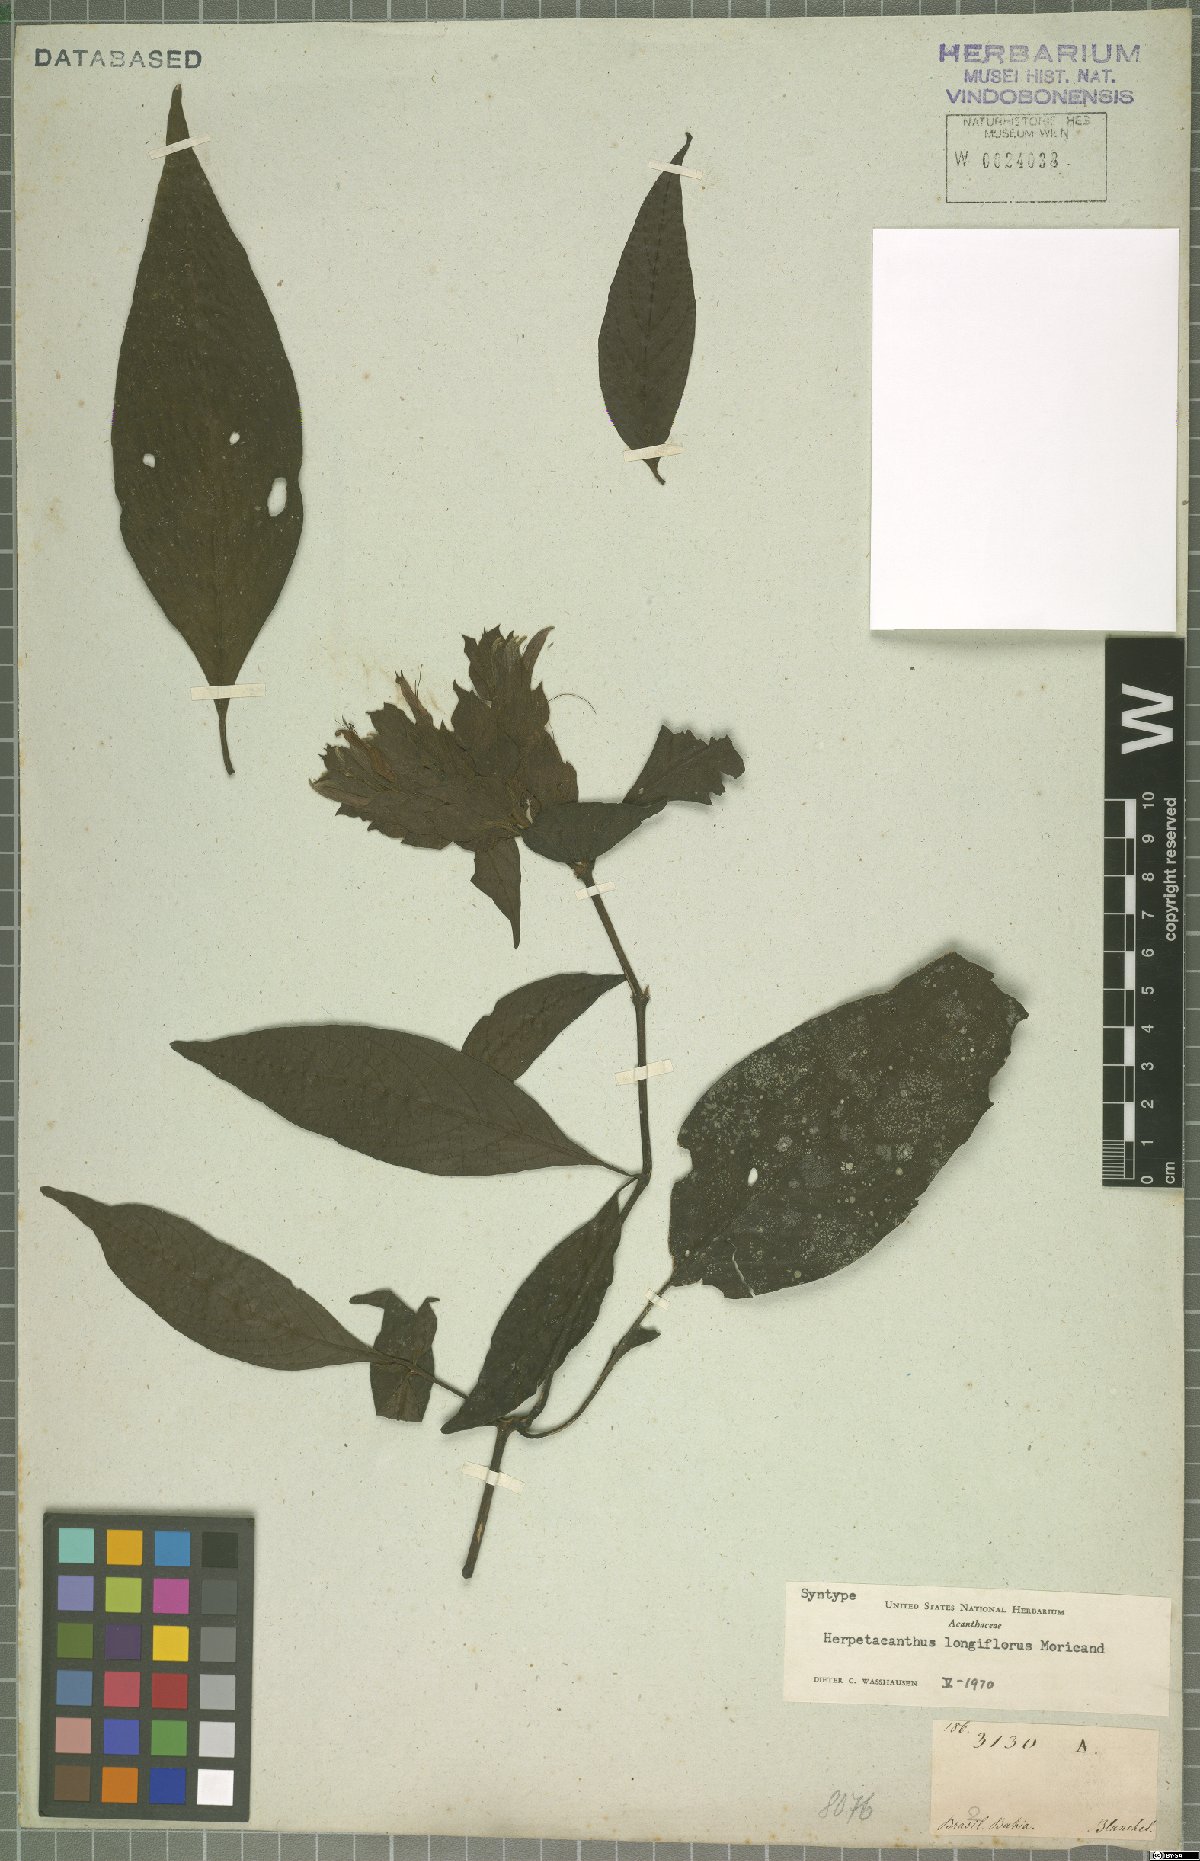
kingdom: Plantae
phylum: Tracheophyta
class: Magnoliopsida
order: Lamiales
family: Acanthaceae
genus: Herpetacanthus
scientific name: Herpetacanthus longiflorus
